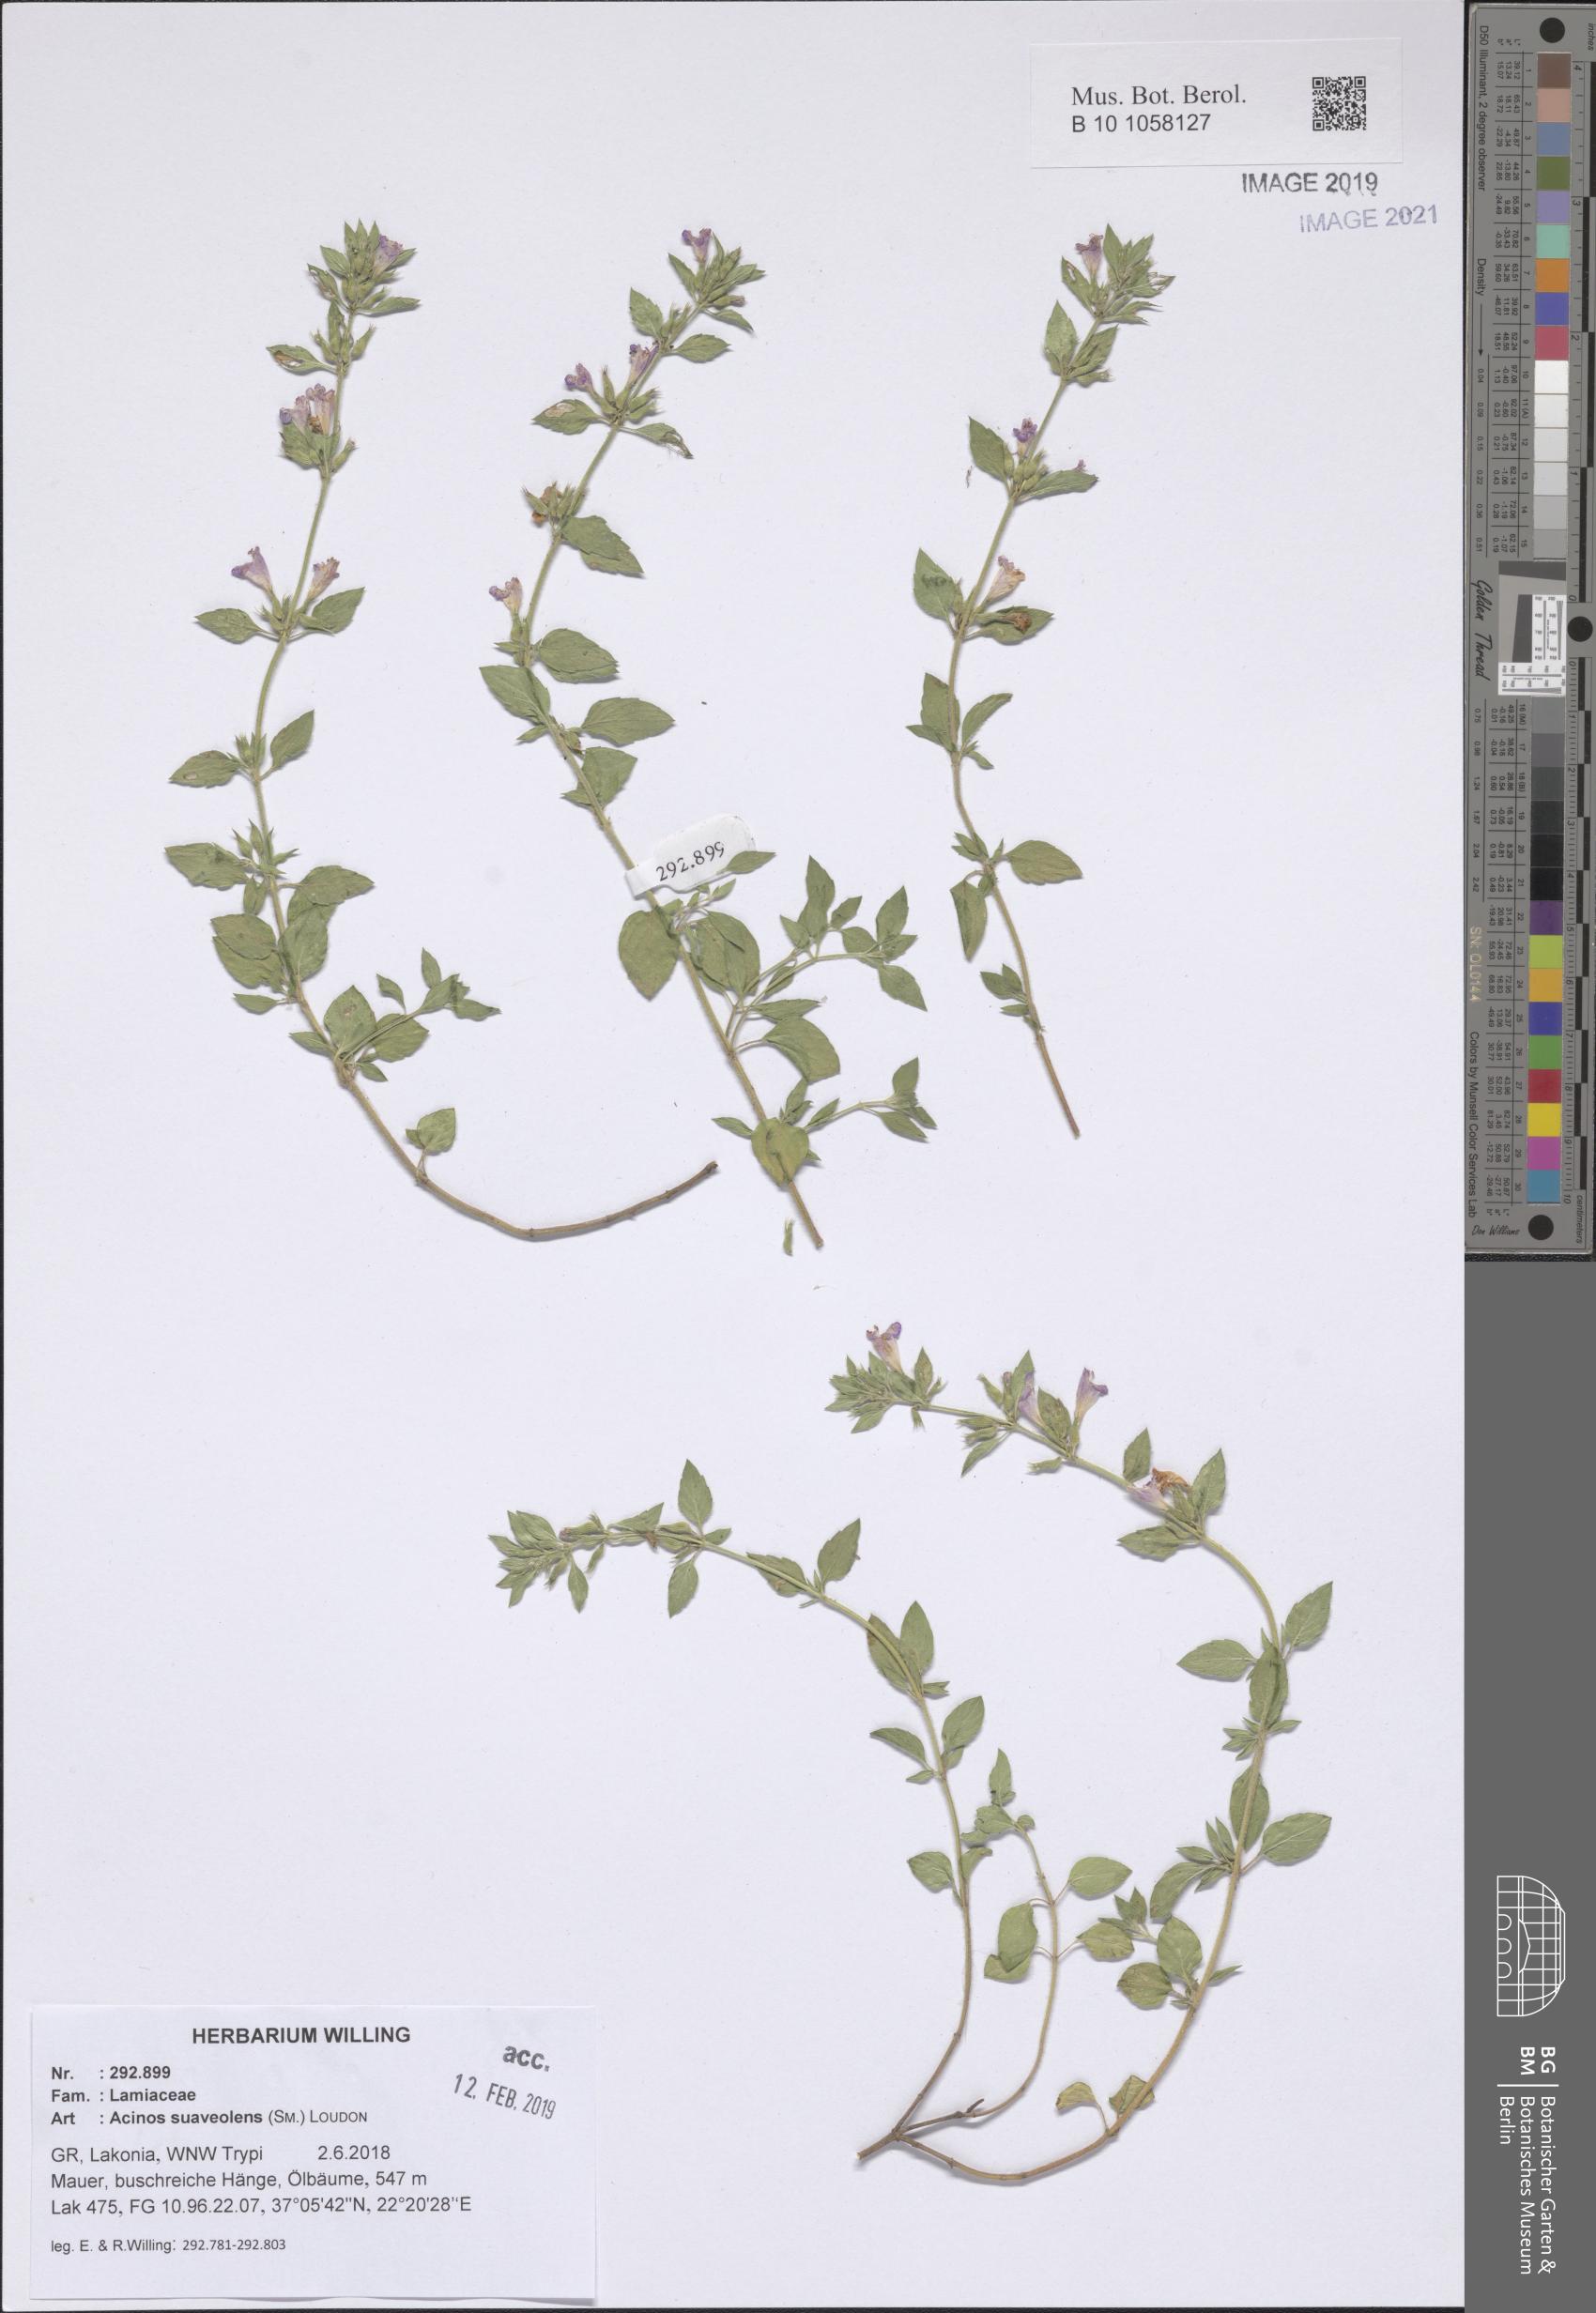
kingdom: Plantae
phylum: Tracheophyta
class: Magnoliopsida
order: Lamiales
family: Lamiaceae
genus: Clinopodium
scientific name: Clinopodium suaveolens
